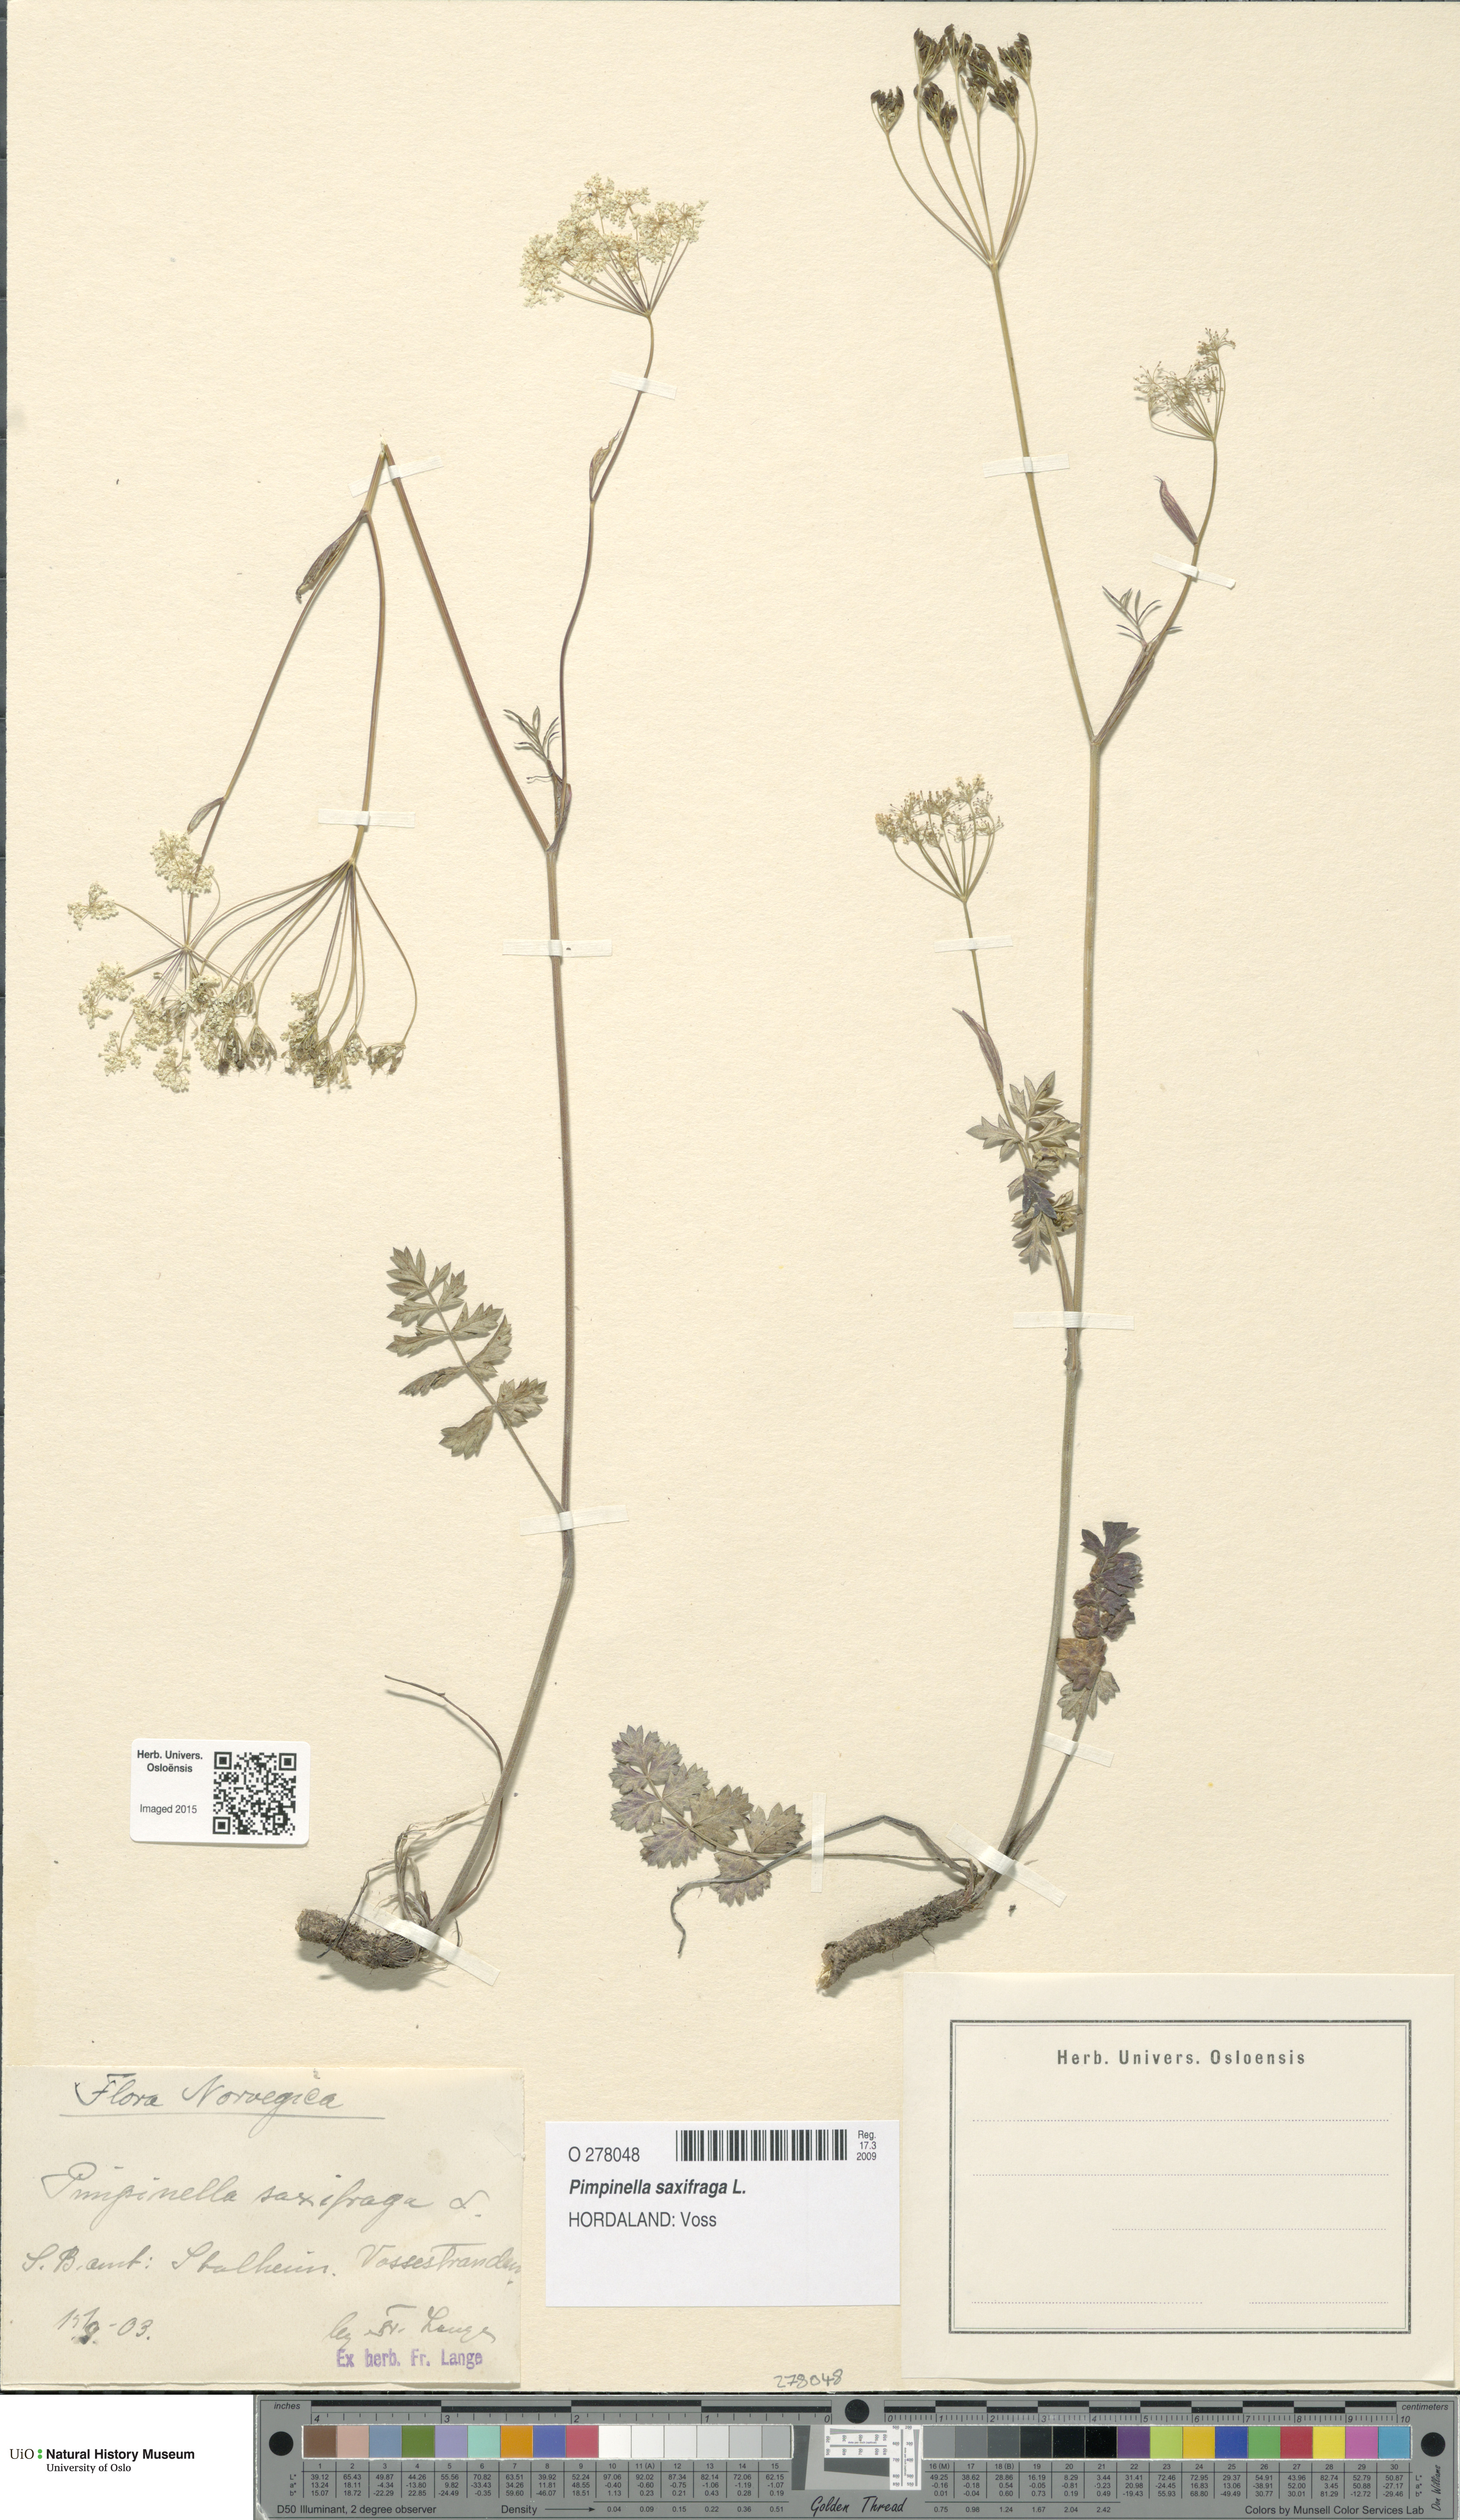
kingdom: Plantae
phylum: Tracheophyta
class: Magnoliopsida
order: Apiales
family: Apiaceae
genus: Pimpinella
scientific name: Pimpinella saxifraga
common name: Burnet-saxifrage
